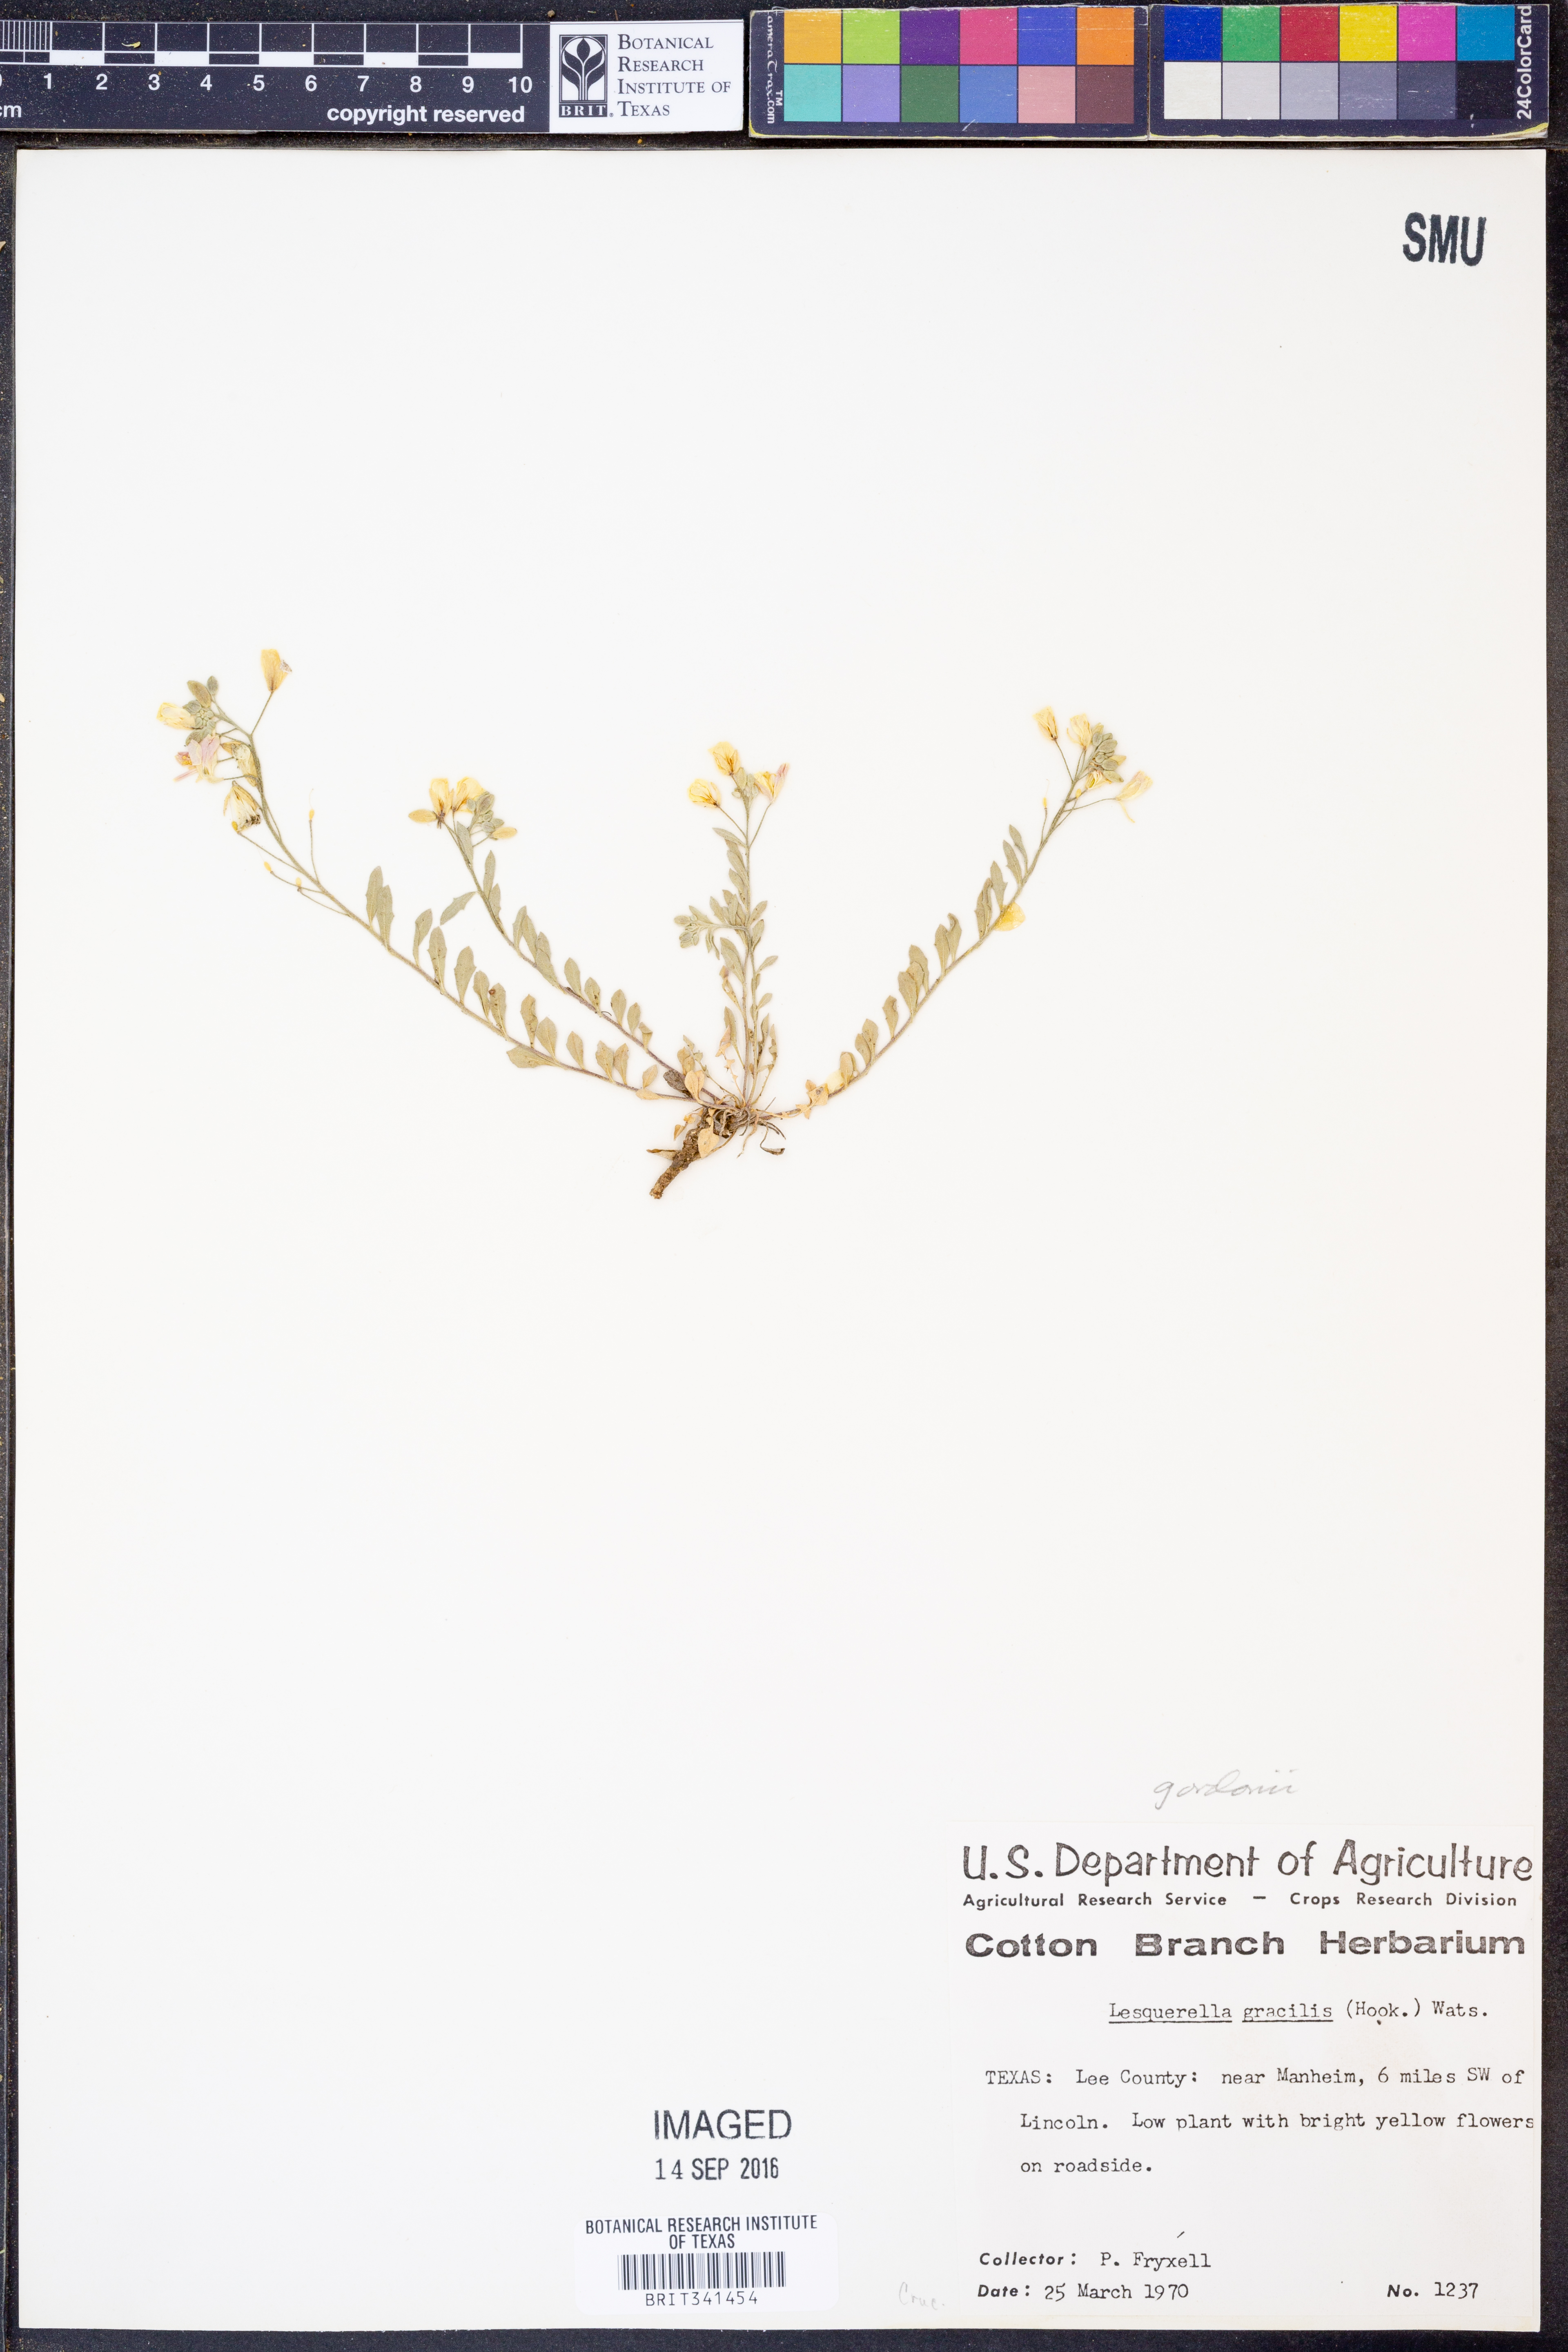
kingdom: Plantae
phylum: Tracheophyta
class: Magnoliopsida
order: Brassicales
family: Brassicaceae
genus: Physaria
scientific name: Physaria gordonii
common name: Gordon's bladderpod
